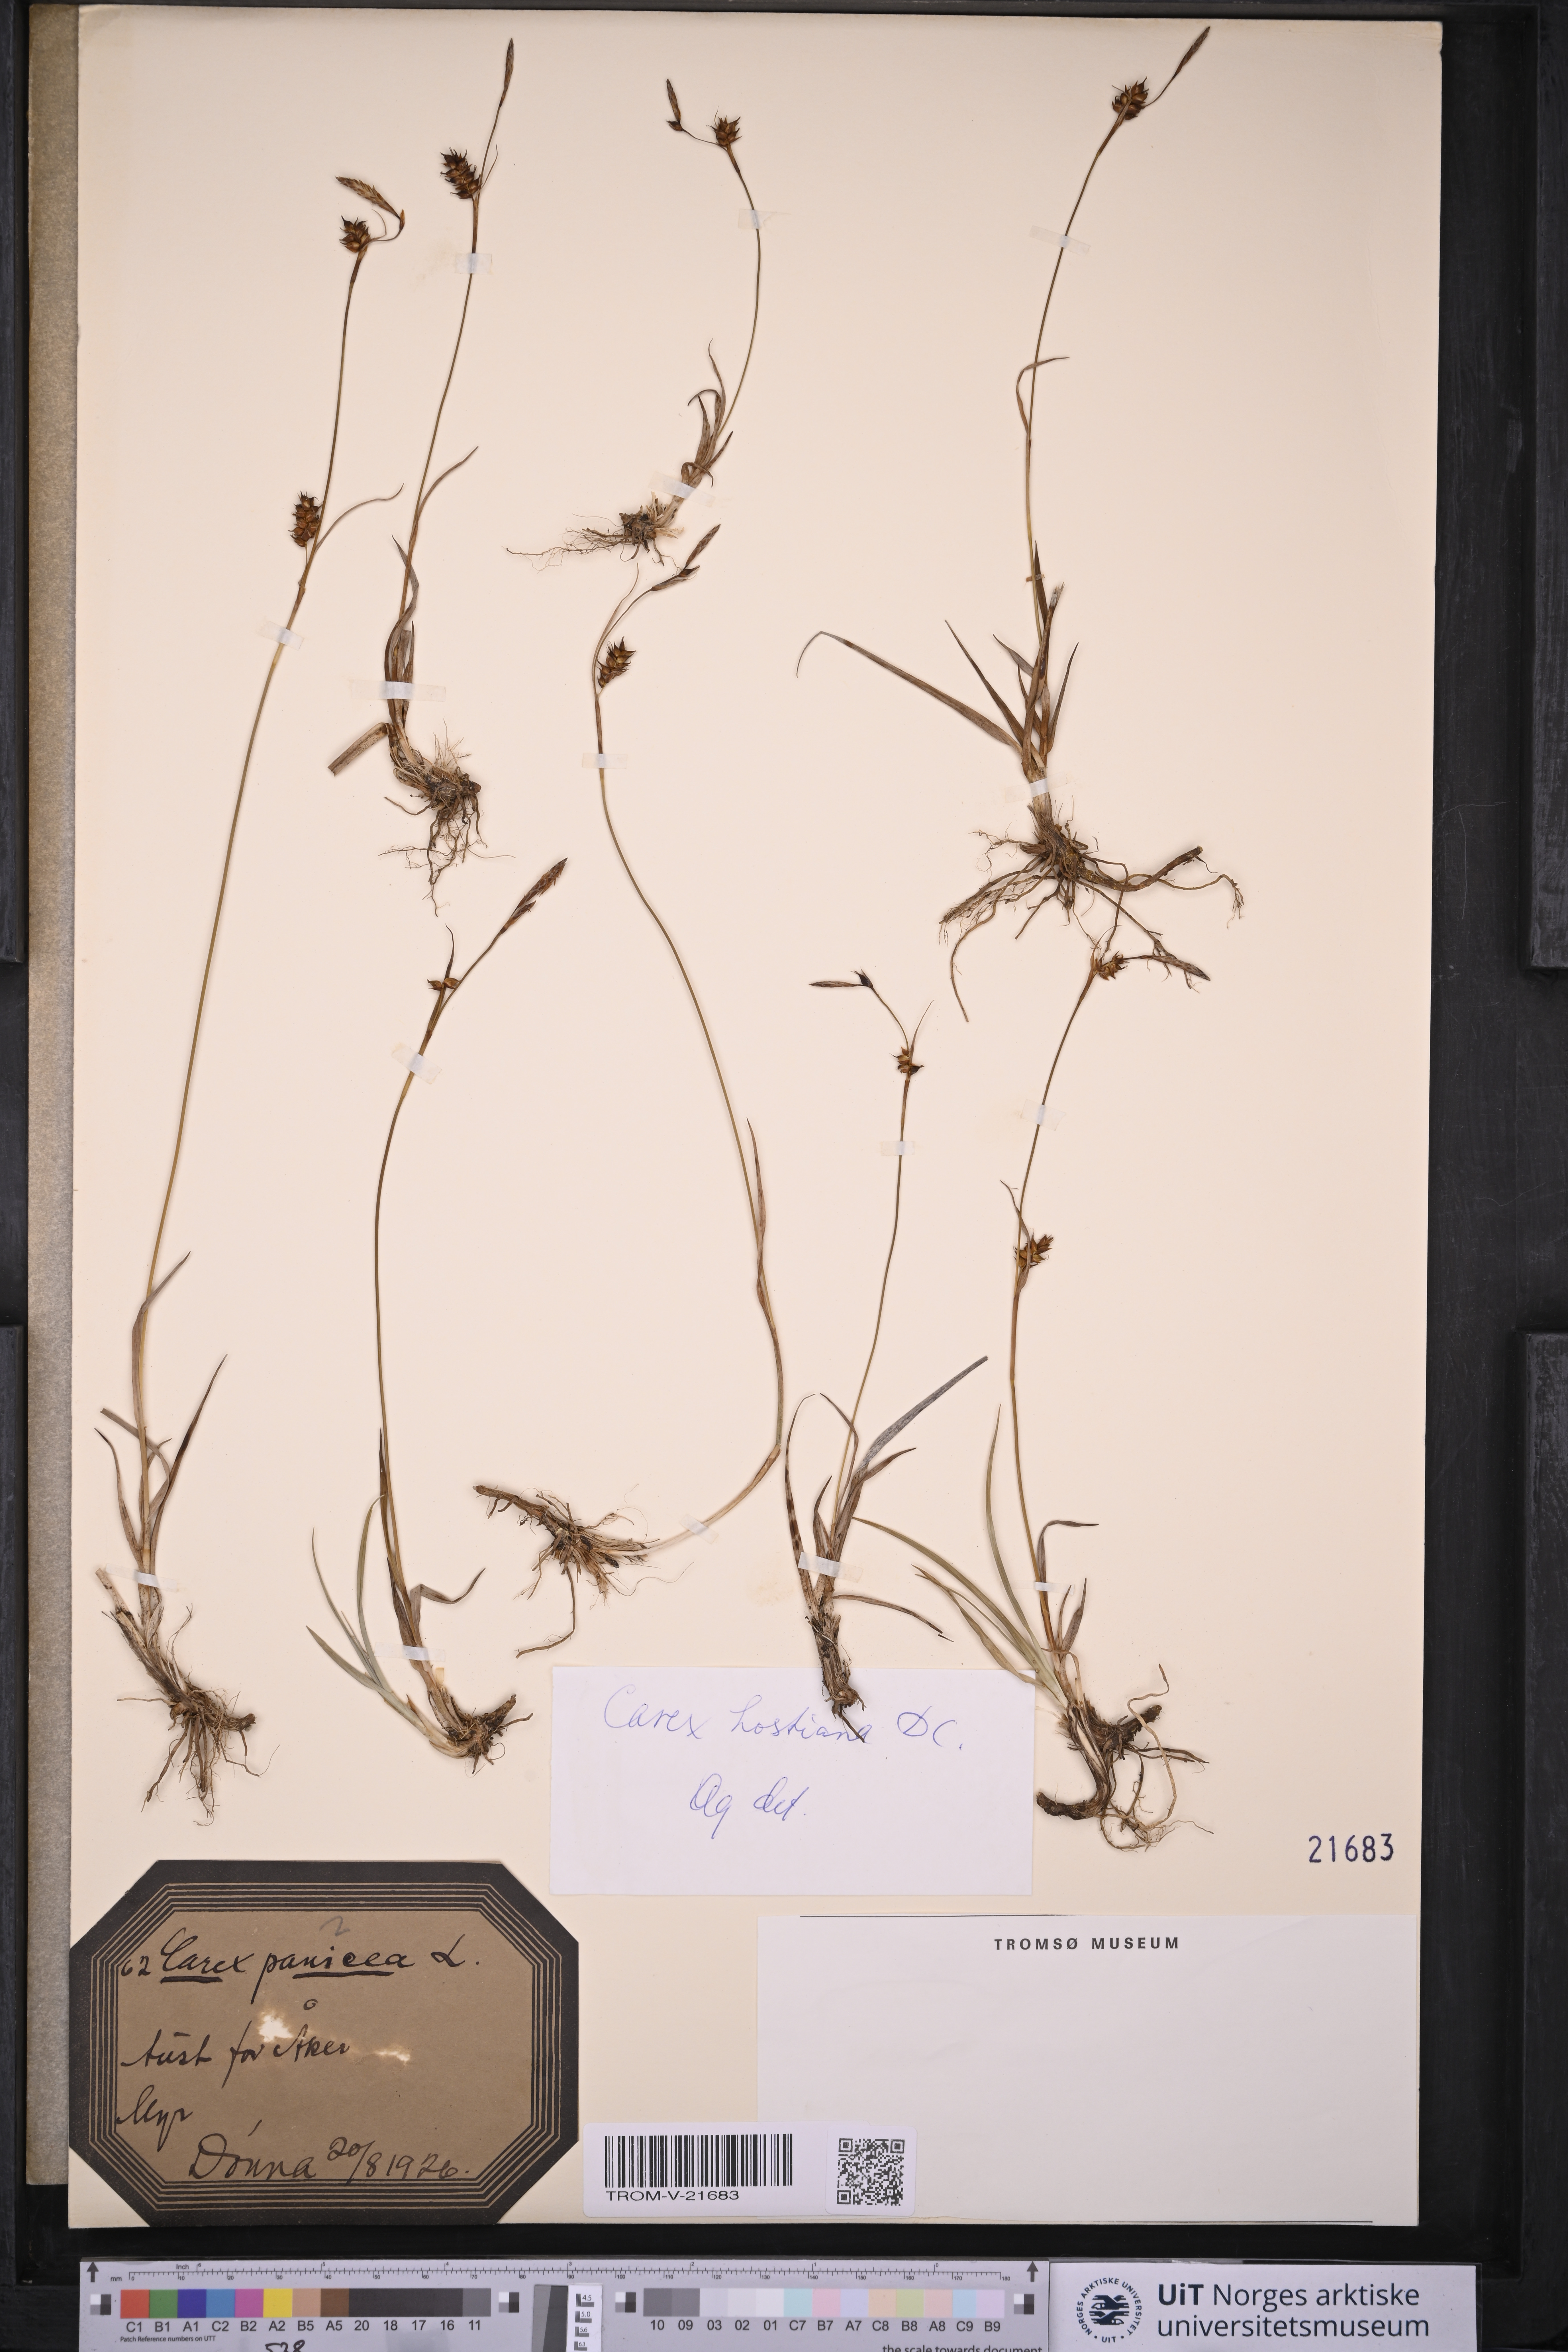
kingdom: Plantae
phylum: Tracheophyta
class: Liliopsida
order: Poales
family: Cyperaceae
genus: Carex
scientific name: Carex hostiana
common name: Tawny sedge
